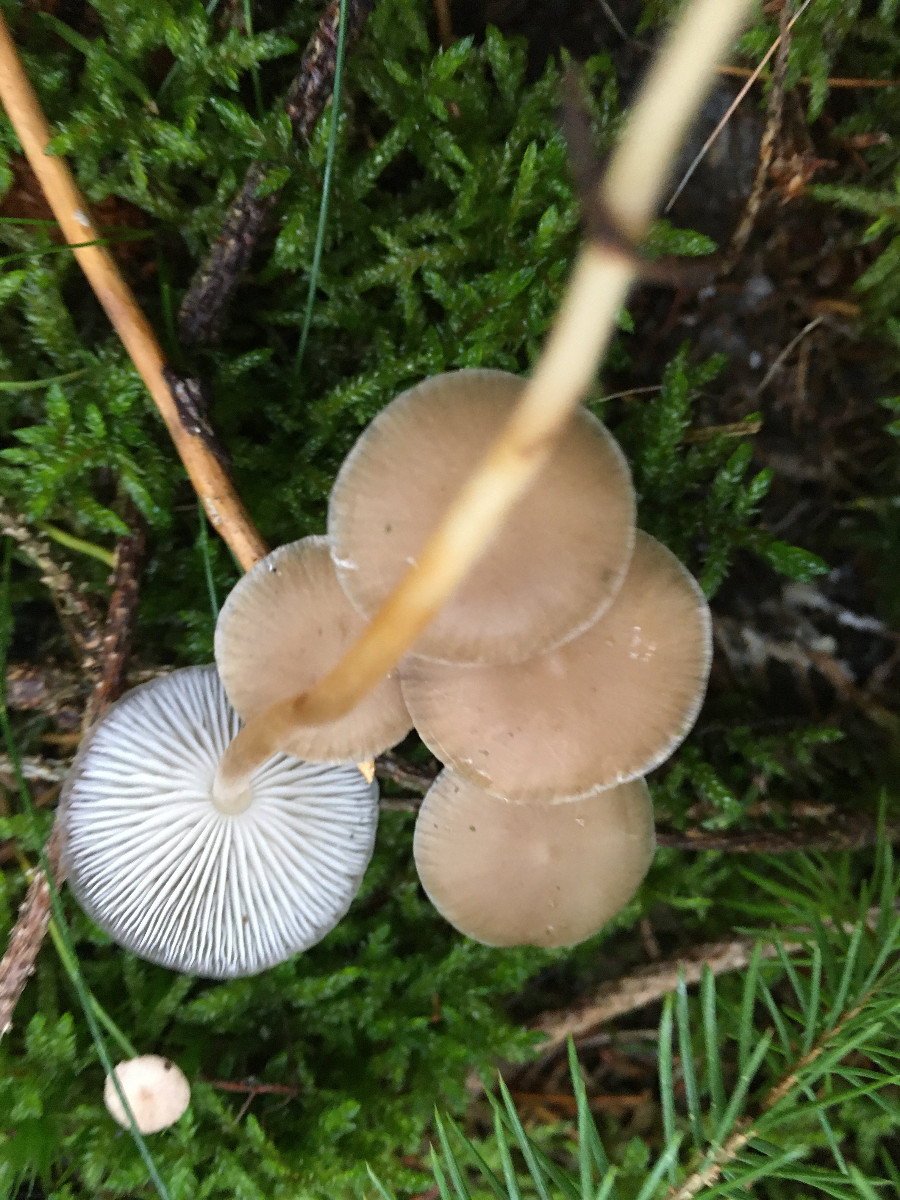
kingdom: Fungi
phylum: Basidiomycota
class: Agaricomycetes
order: Agaricales
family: Physalacriaceae
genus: Strobilurus
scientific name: Strobilurus esculentus
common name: gran-koglehat
